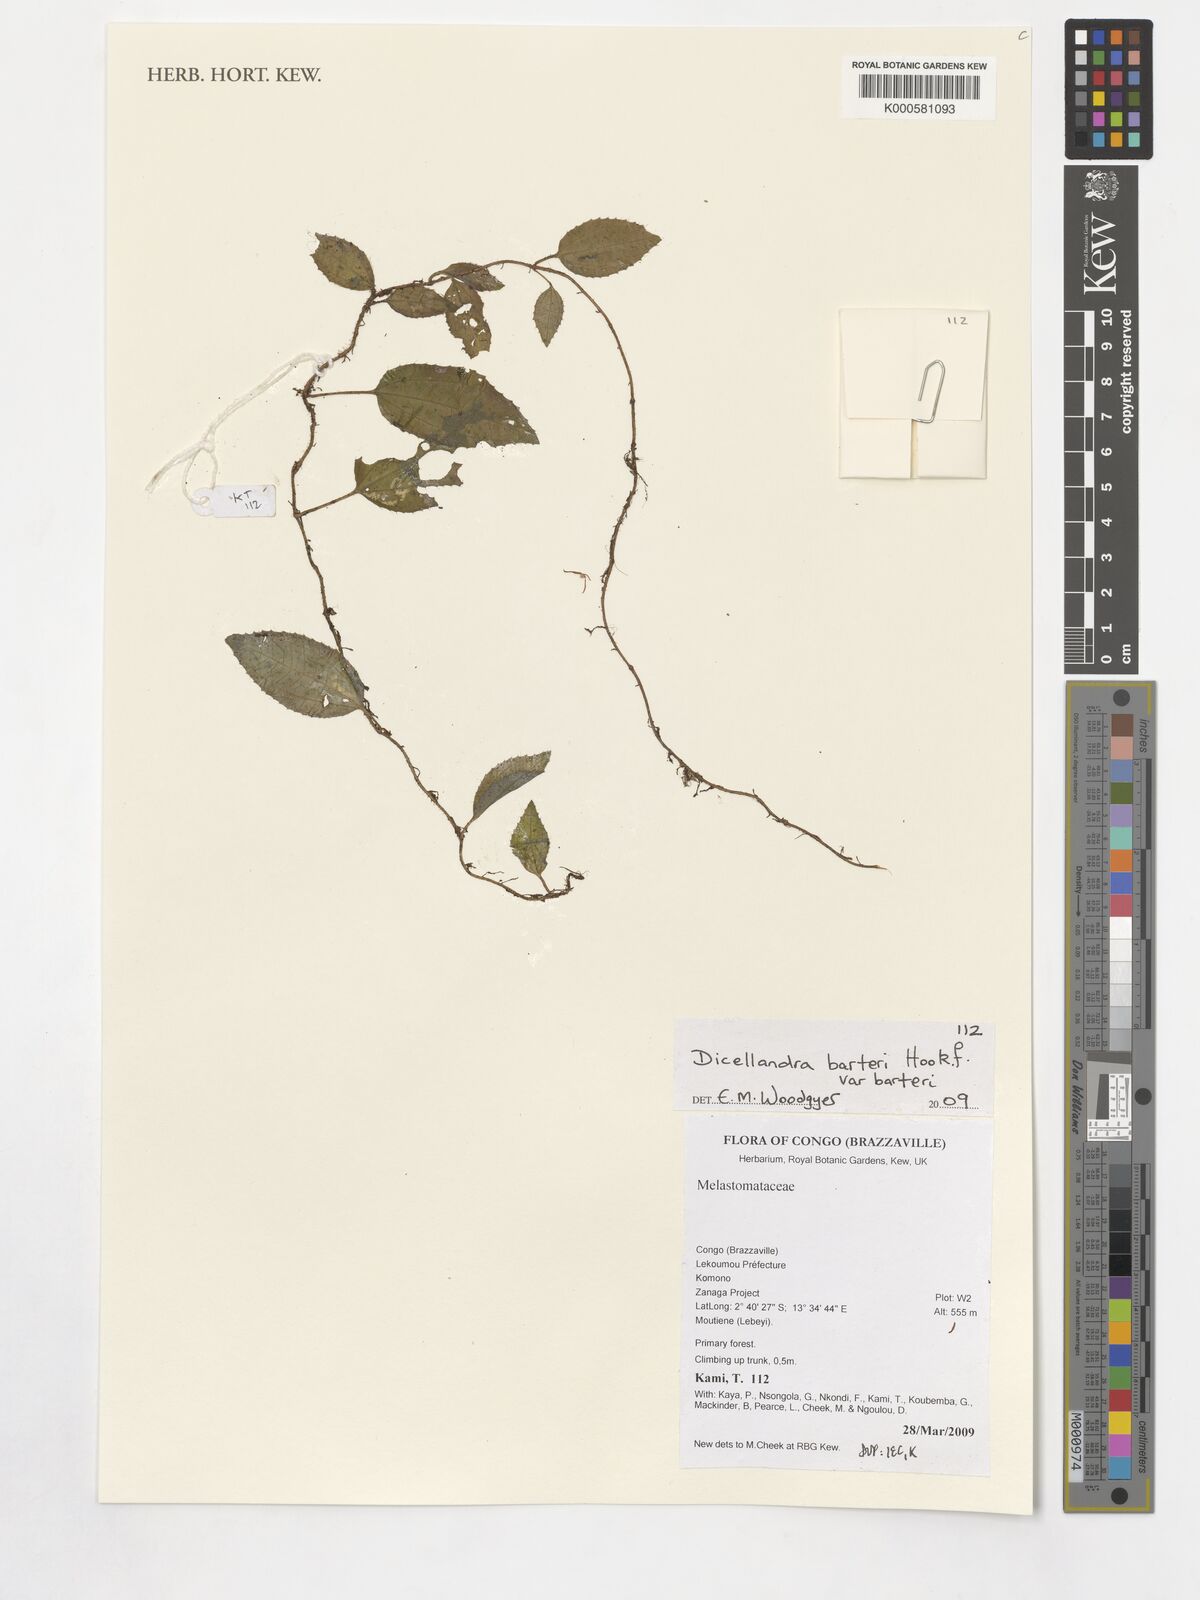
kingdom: Plantae
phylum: Tracheophyta
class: Magnoliopsida
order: Myrtales
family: Melastomataceae
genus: Dicellandra
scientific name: Dicellandra barteri
